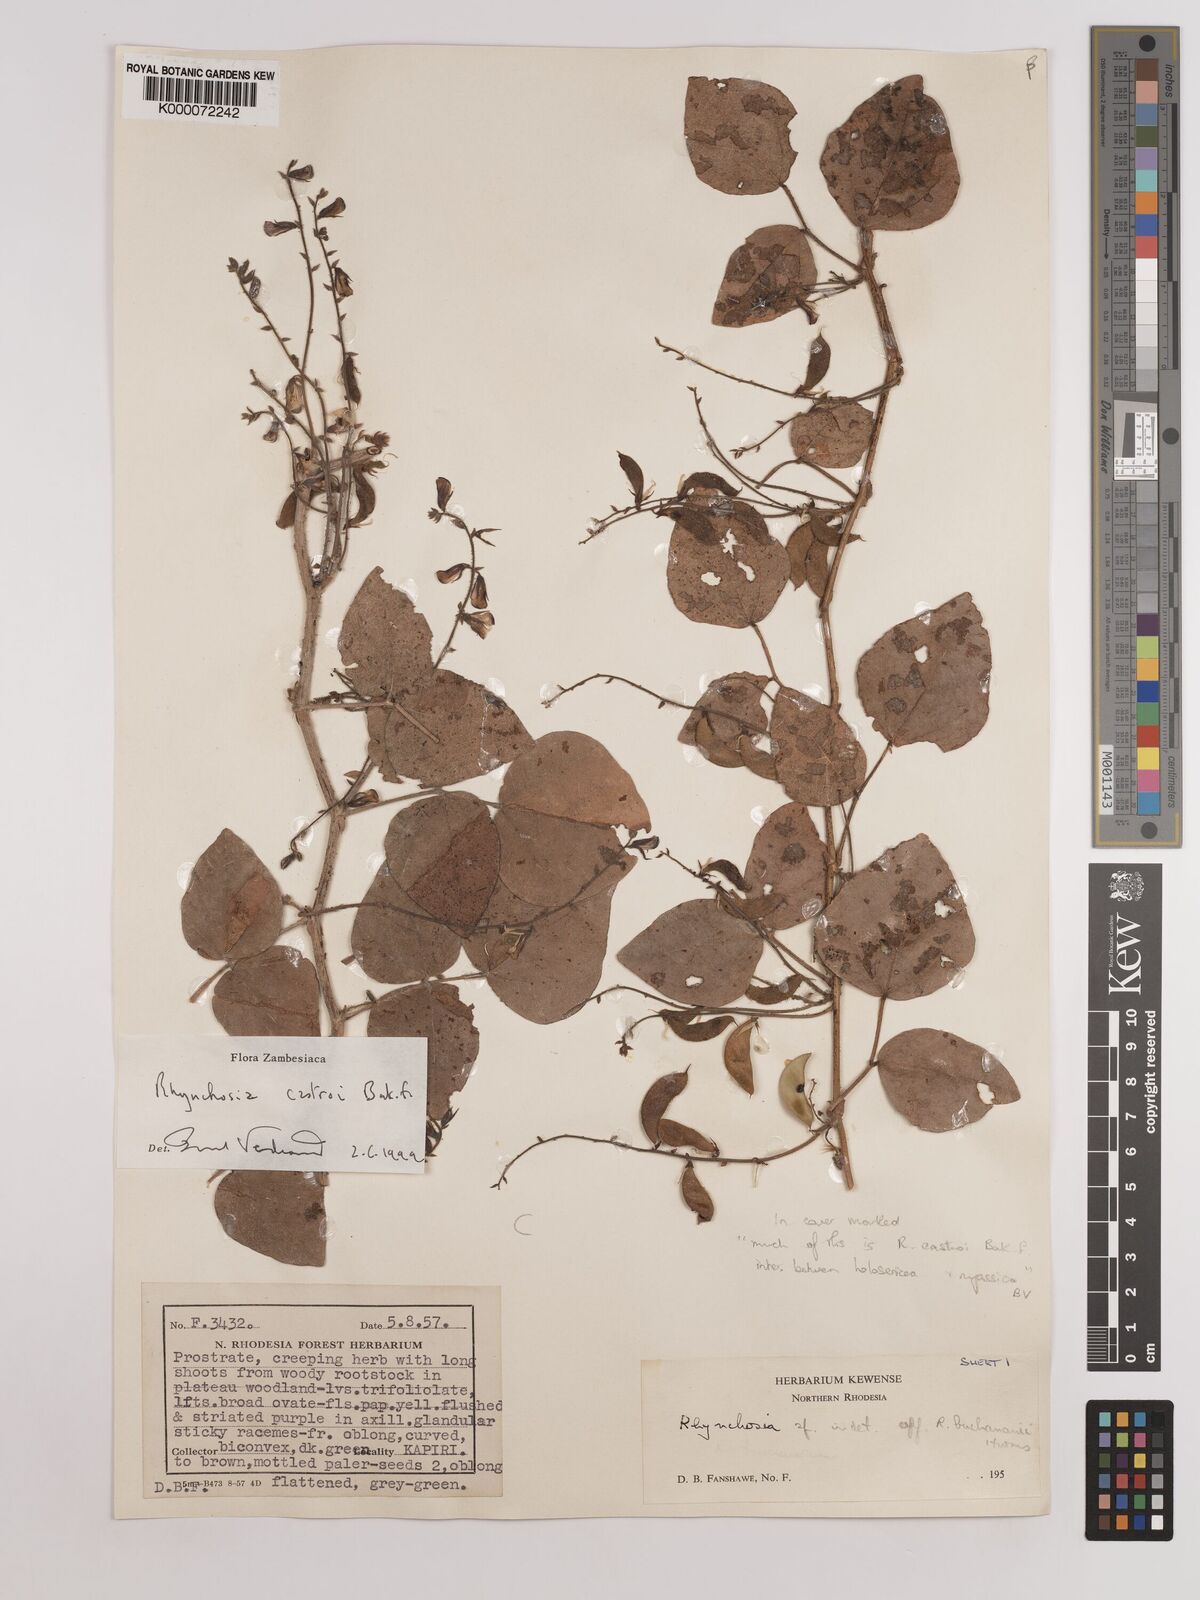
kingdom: Plantae
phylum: Tracheophyta
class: Magnoliopsida
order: Fabales
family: Fabaceae
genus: Rhynchosia
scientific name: Rhynchosia castroi
